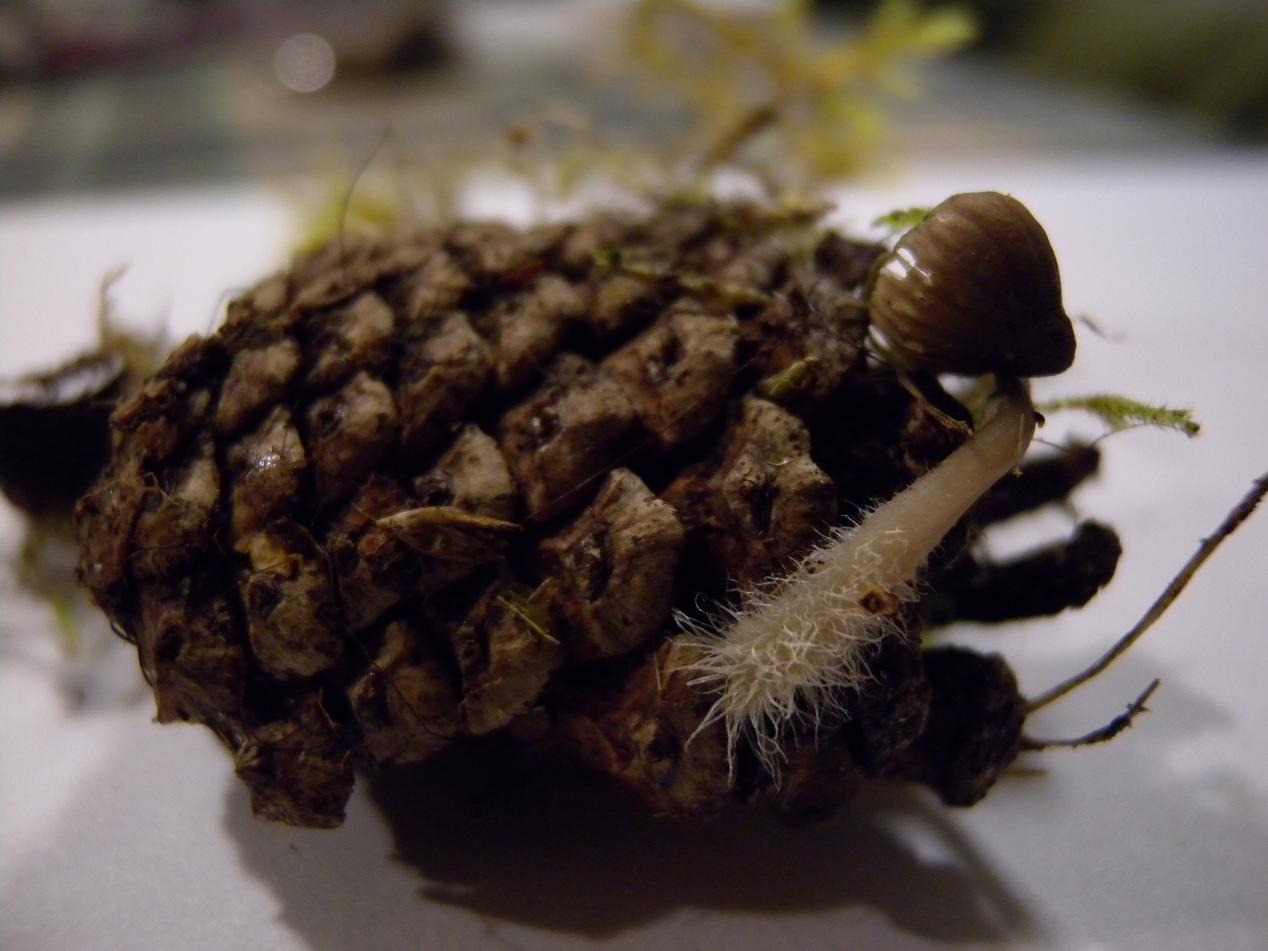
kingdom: Fungi
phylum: Basidiomycota
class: Agaricomycetes
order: Agaricales
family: Mycenaceae
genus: Mycena
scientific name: Mycena galopus
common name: hvidmælket huesvamp
